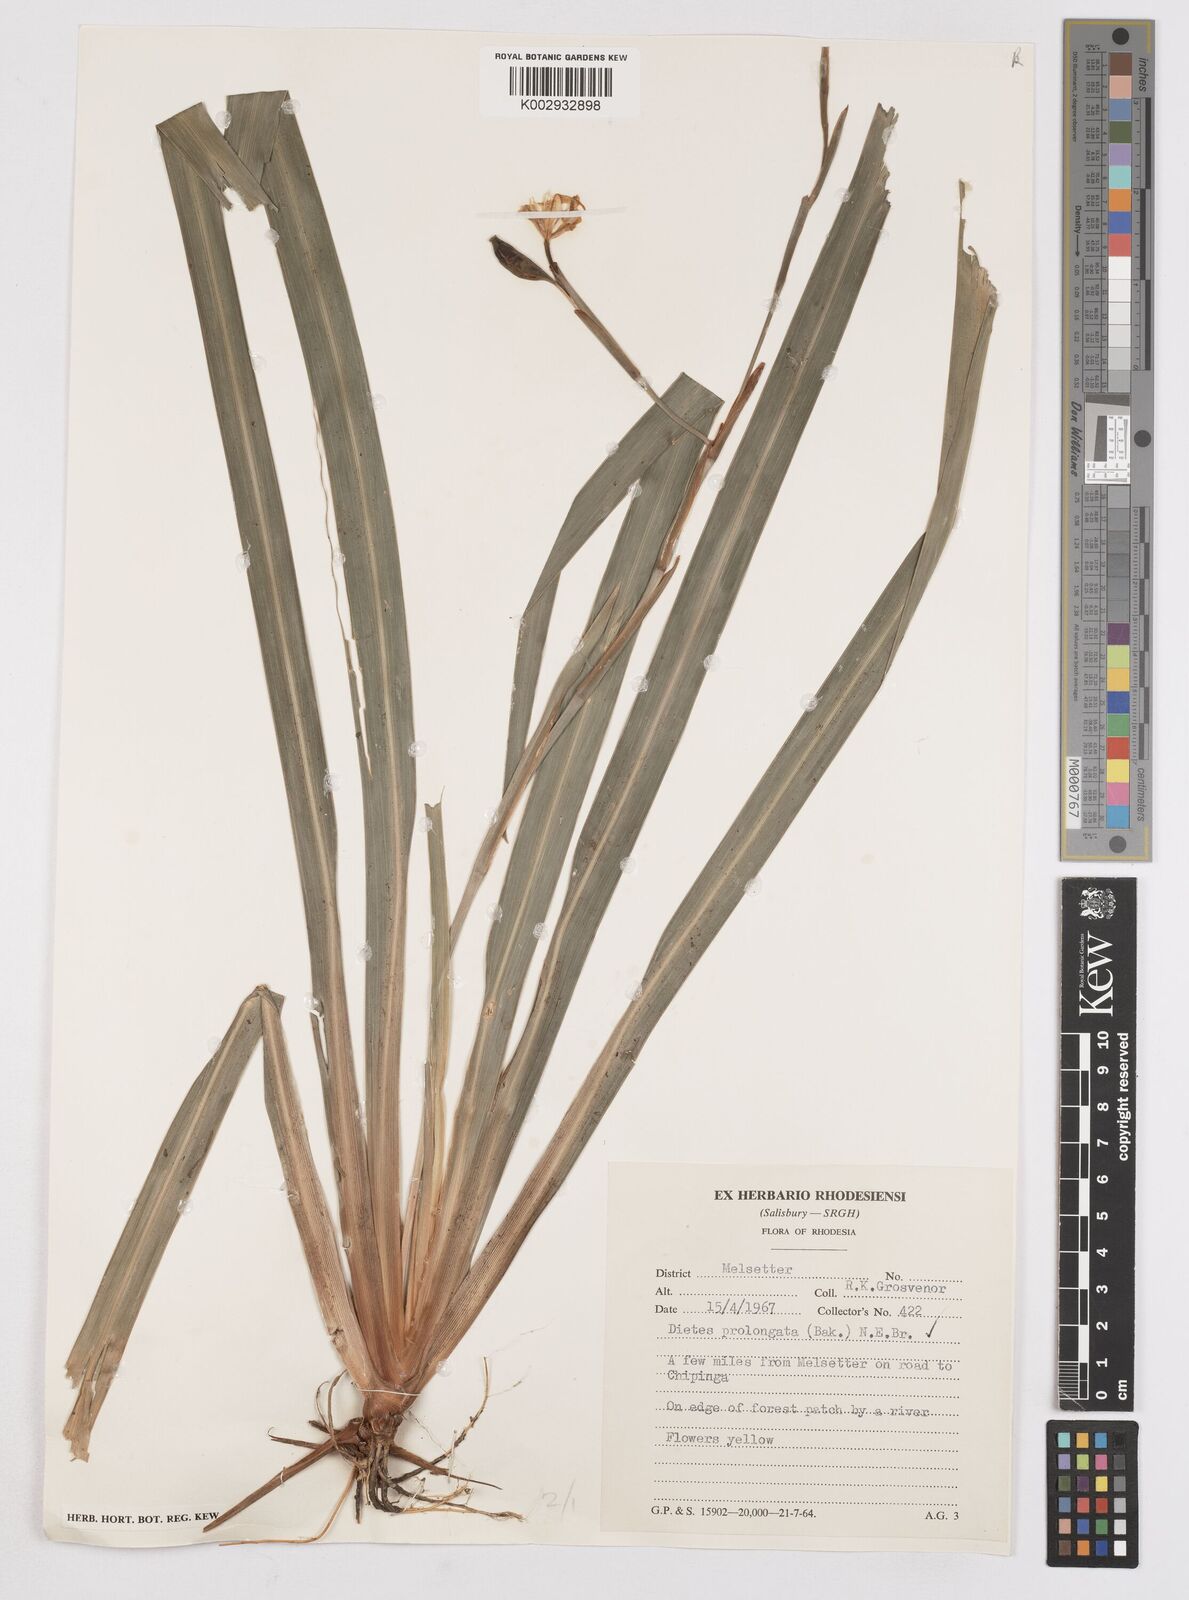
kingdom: Plantae
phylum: Tracheophyta
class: Liliopsida
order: Asparagales
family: Iridaceae
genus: Dietes
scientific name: Dietes iridioides
